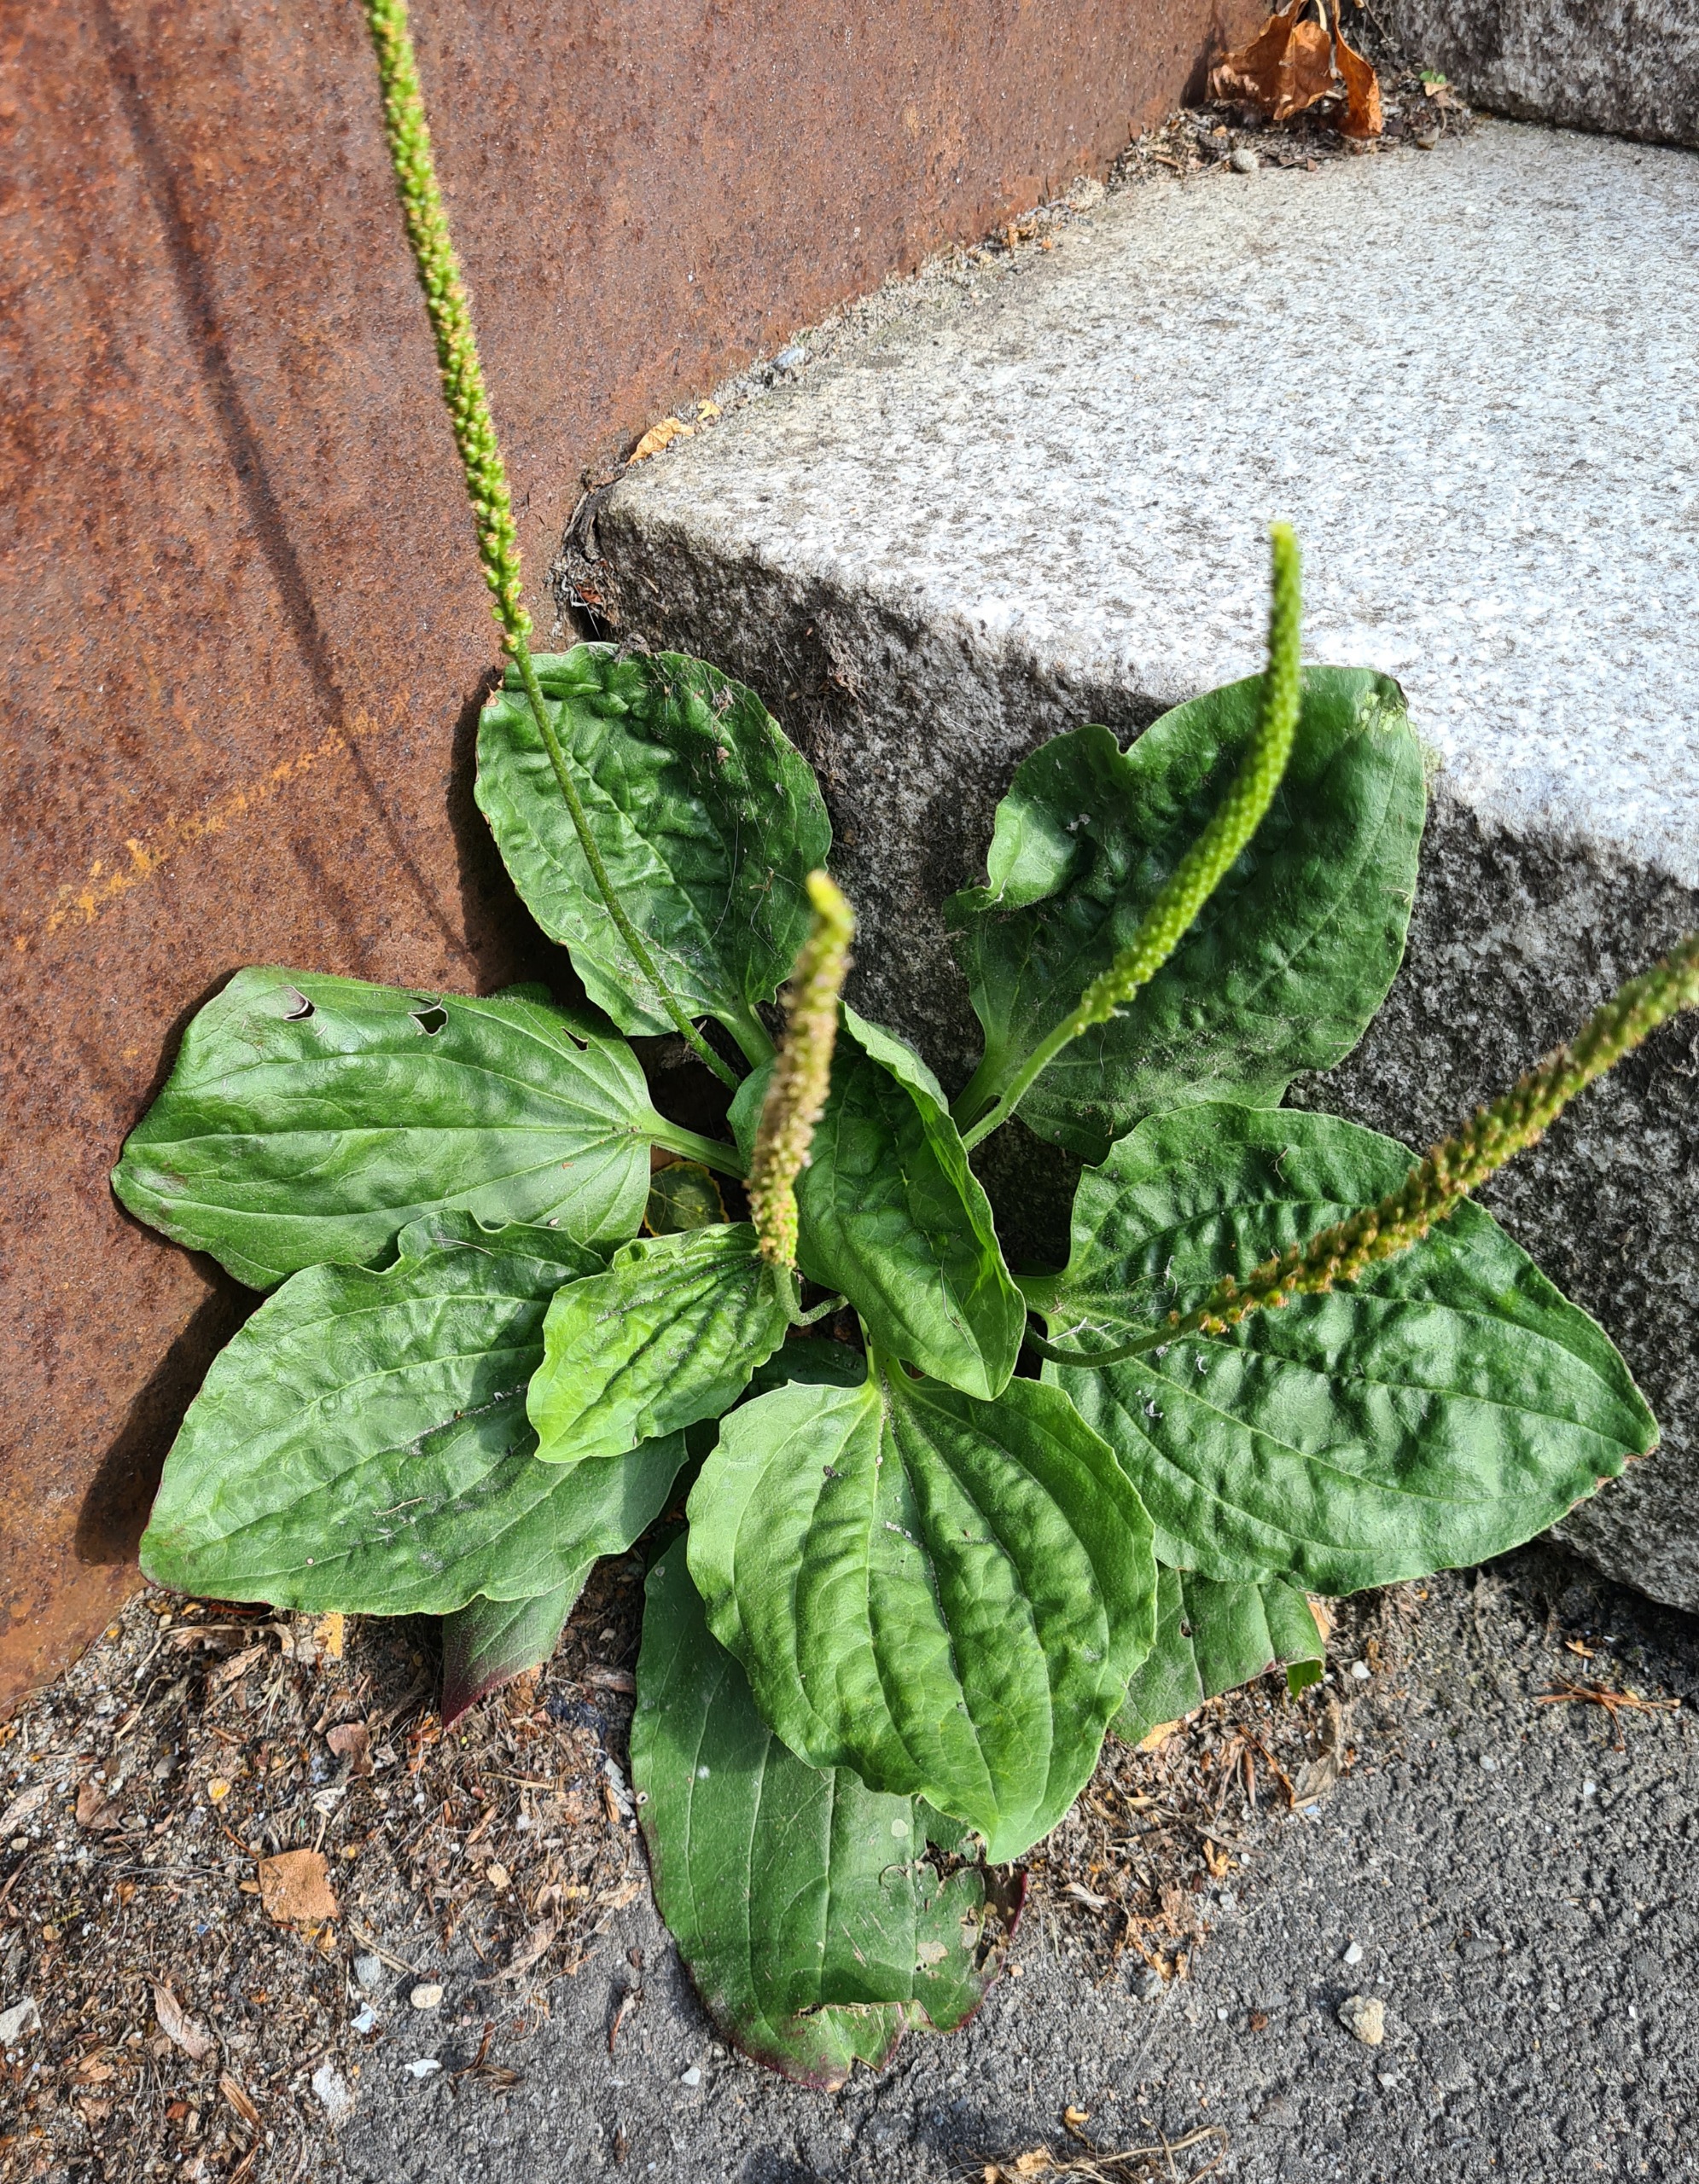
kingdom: Plantae
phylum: Tracheophyta
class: Magnoliopsida
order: Lamiales
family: Plantaginaceae
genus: Plantago
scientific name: Plantago major
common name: Glat vejbred
